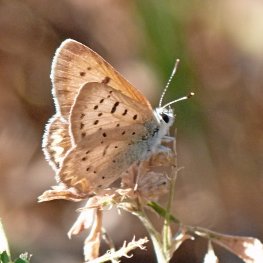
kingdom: Animalia
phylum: Arthropoda
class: Insecta
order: Lepidoptera
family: Sesiidae
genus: Sesia
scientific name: Sesia Lycaena helloides
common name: Purplish Copper
